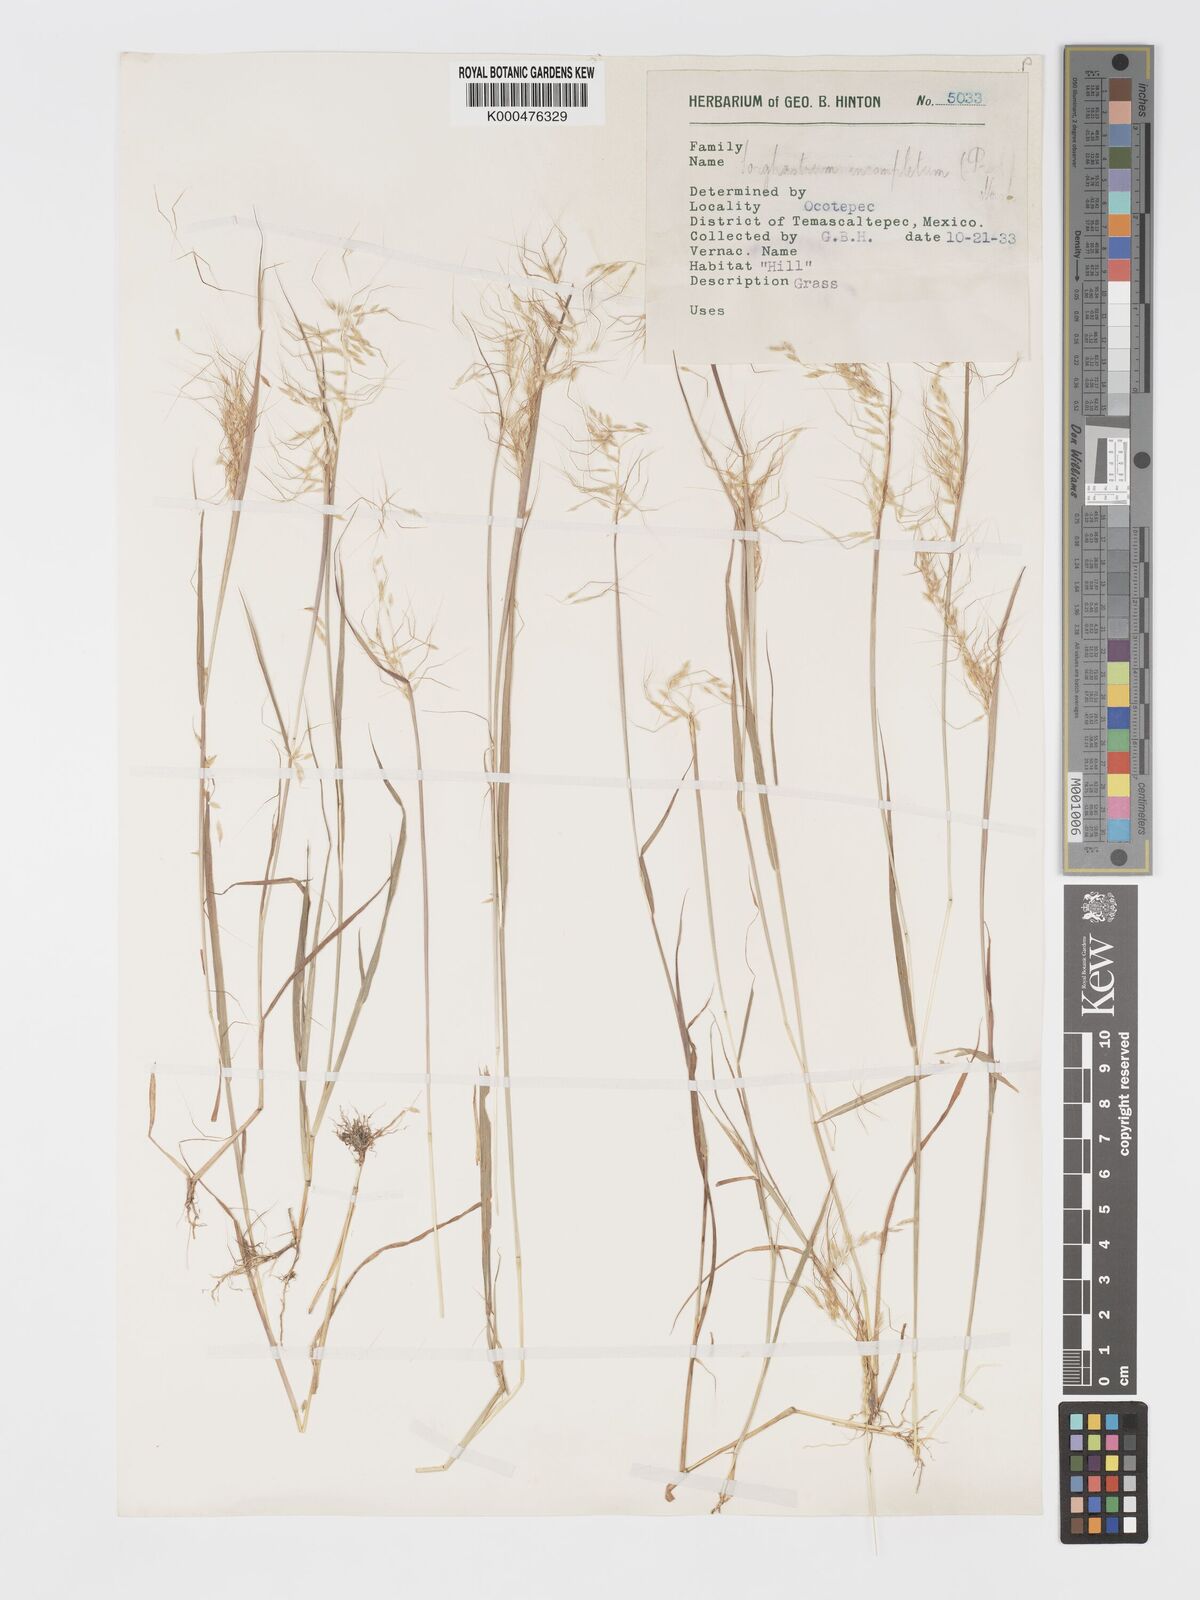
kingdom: Plantae
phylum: Tracheophyta
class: Liliopsida
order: Poales
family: Poaceae
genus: Sorghastrum
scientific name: Sorghastrum incompletum
